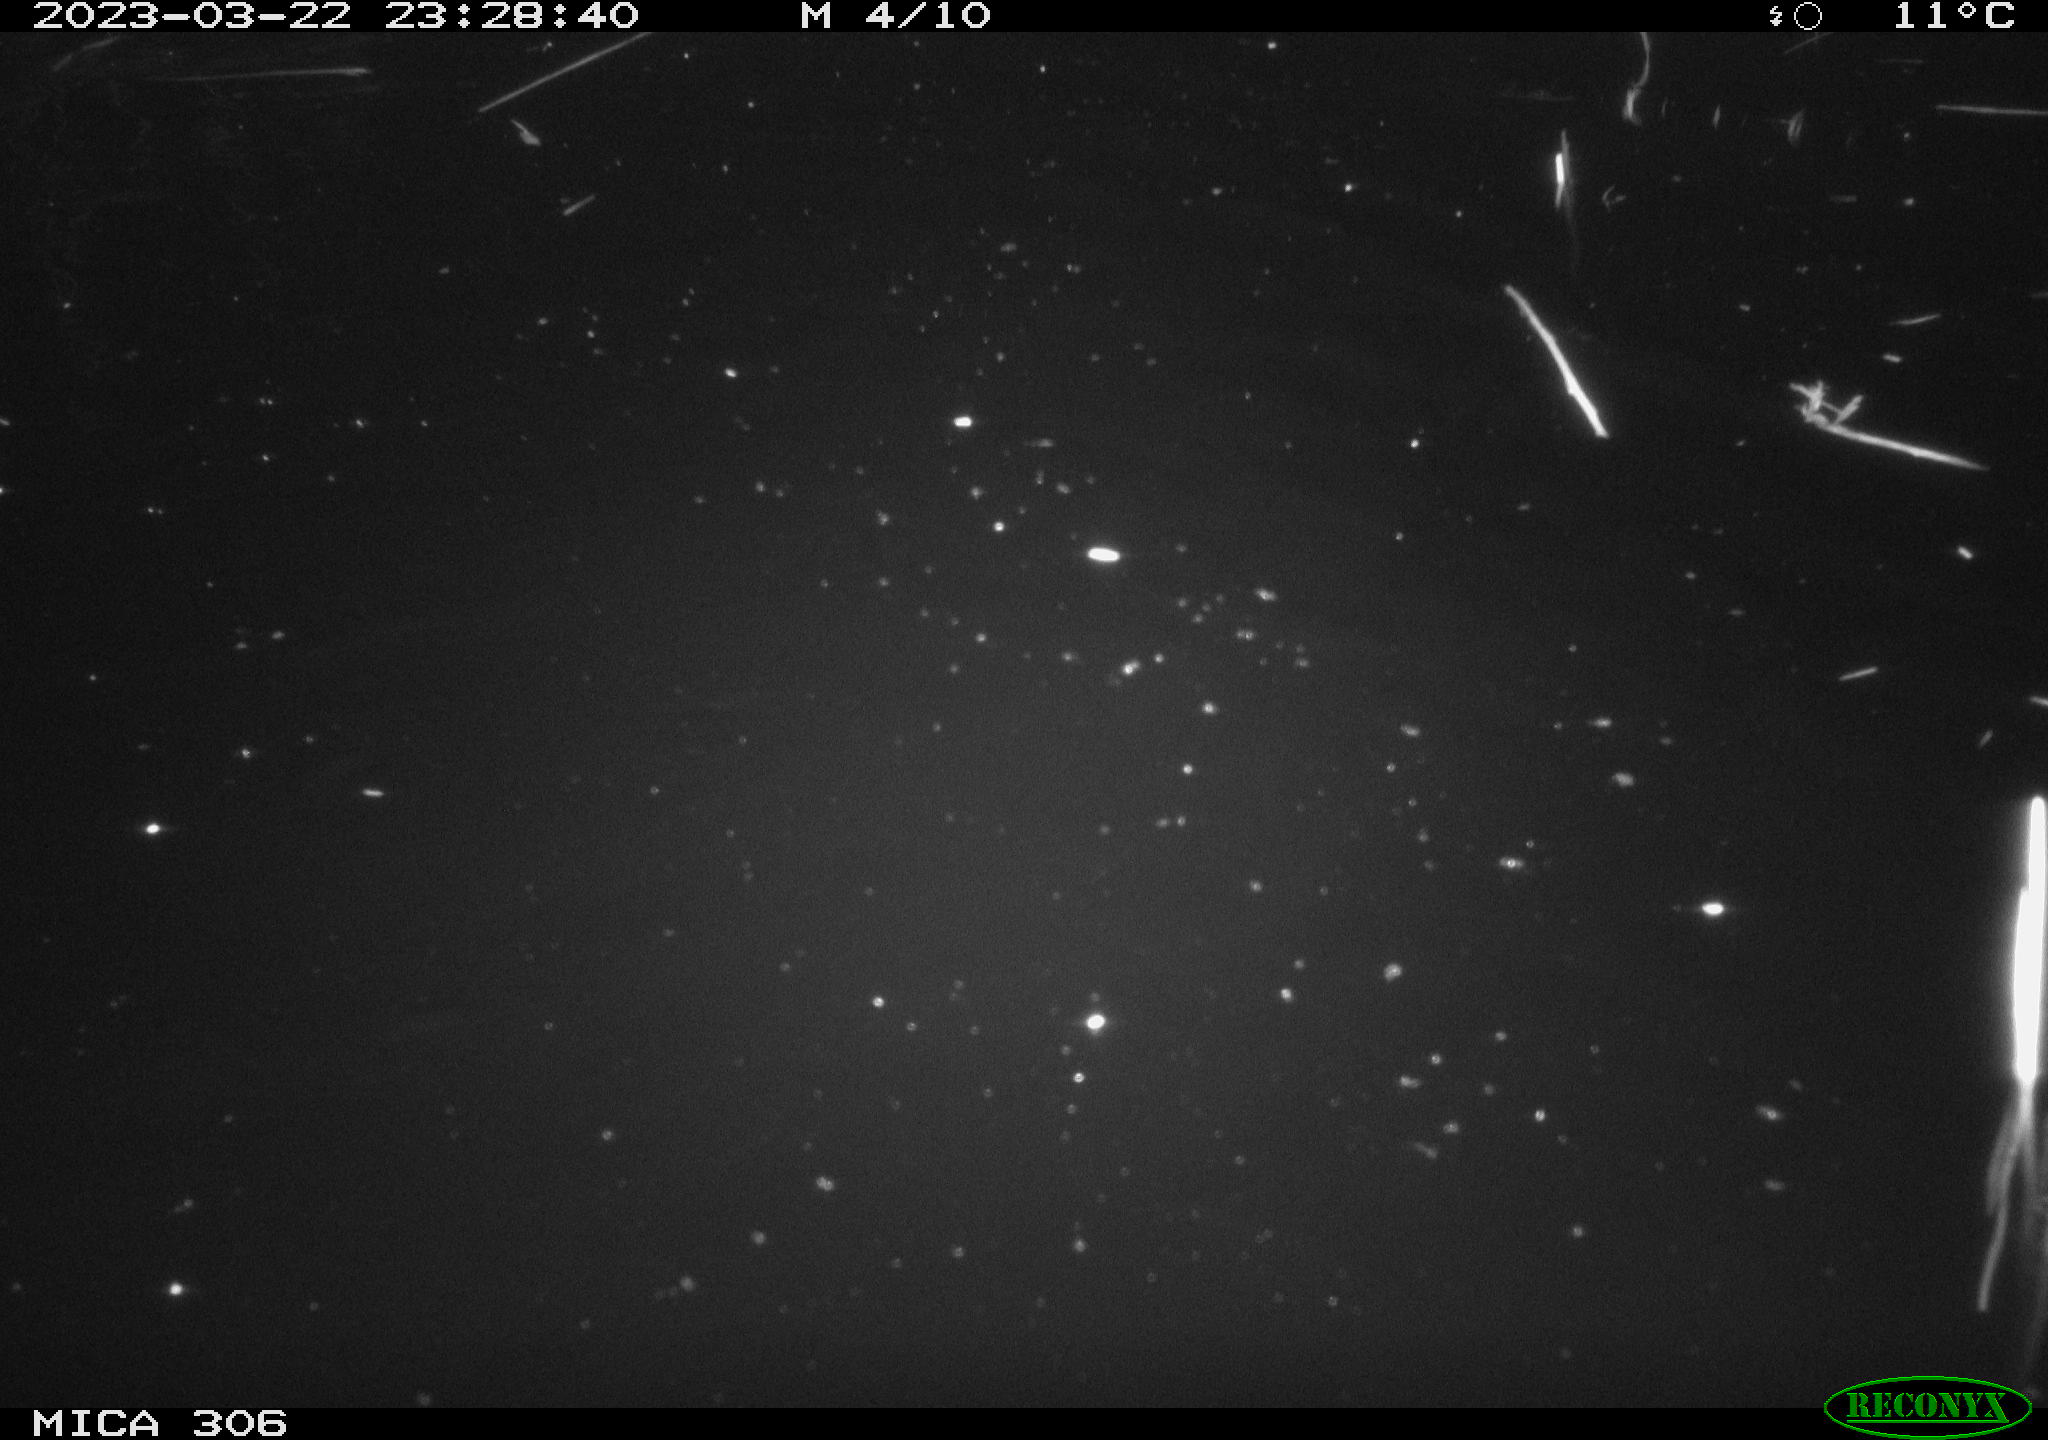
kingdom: Animalia
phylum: Chordata
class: Mammalia
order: Rodentia
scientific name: Rodentia
